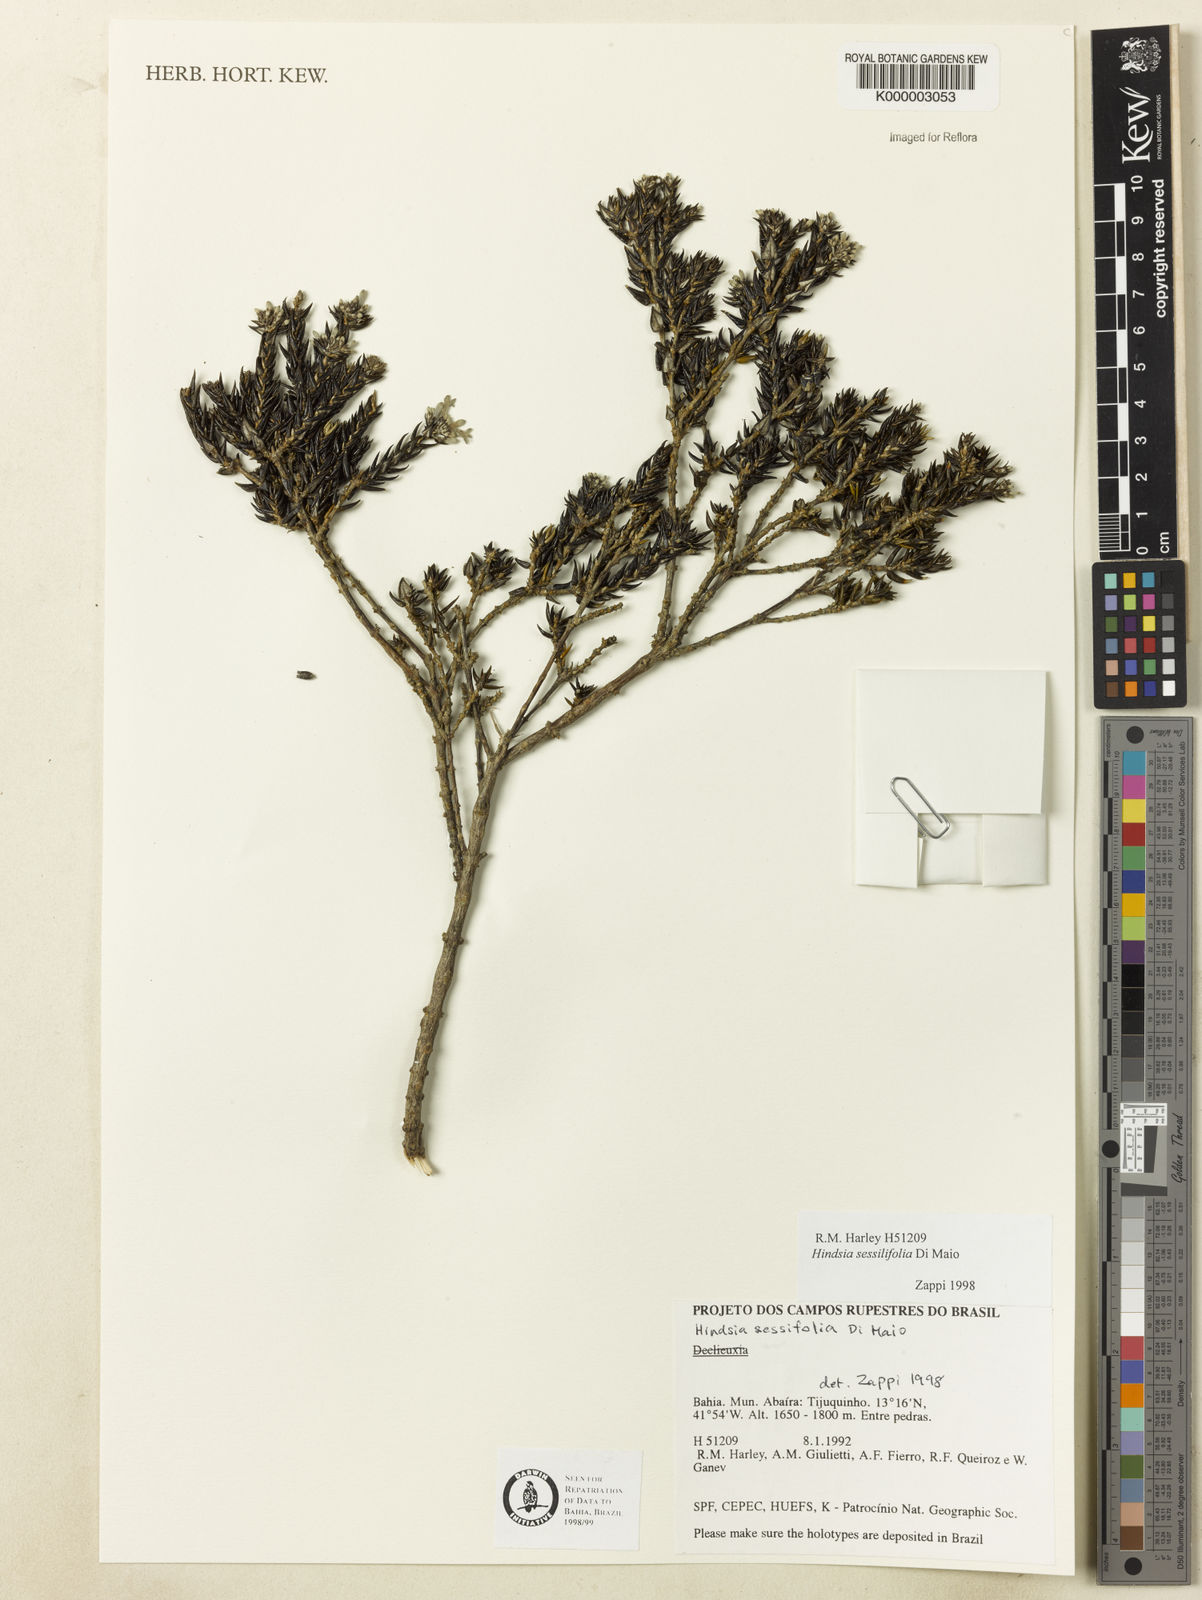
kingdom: Plantae
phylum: Tracheophyta
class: Magnoliopsida
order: Gentianales
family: Rubiaceae
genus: Hindsia
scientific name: Hindsia sessilifolia
